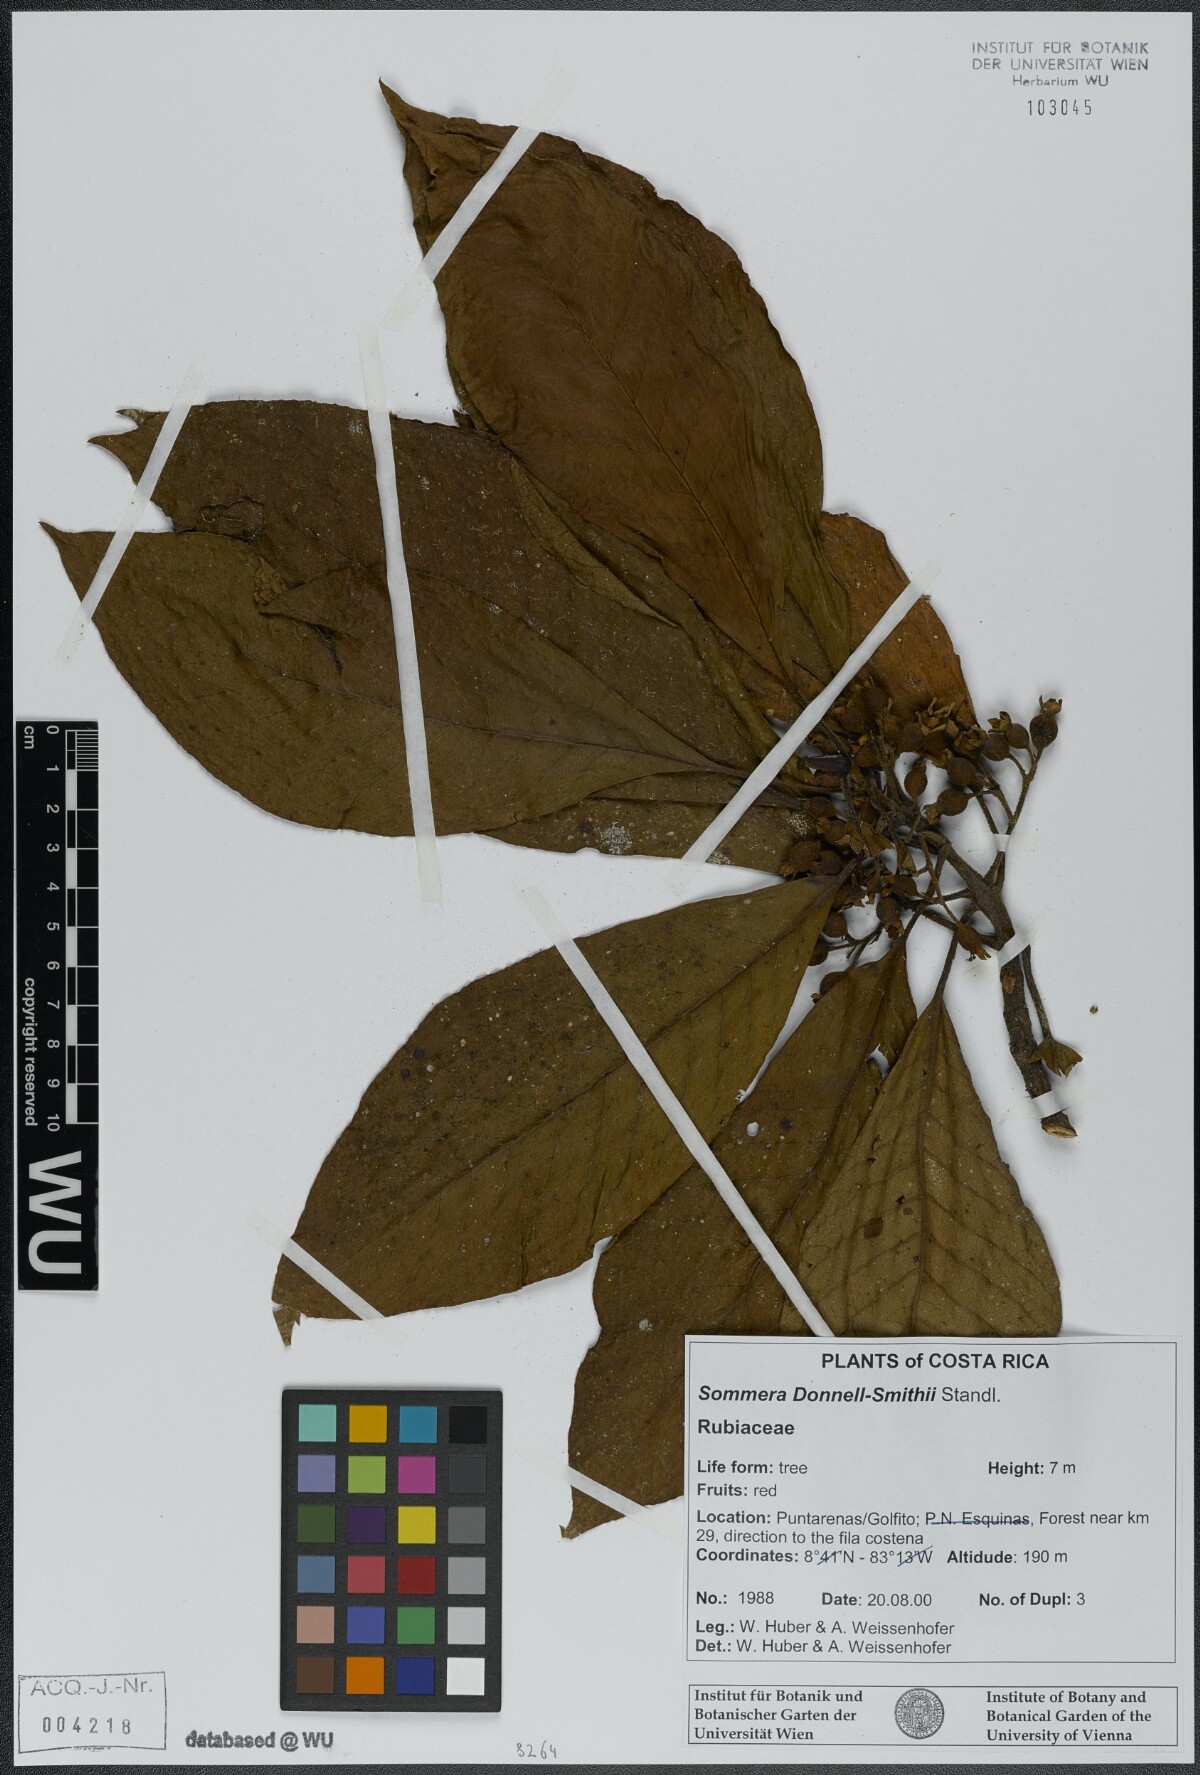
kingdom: Plantae
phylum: Tracheophyta
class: Magnoliopsida
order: Gentianales
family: Rubiaceae
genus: Sommera
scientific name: Sommera donnell-smithii
